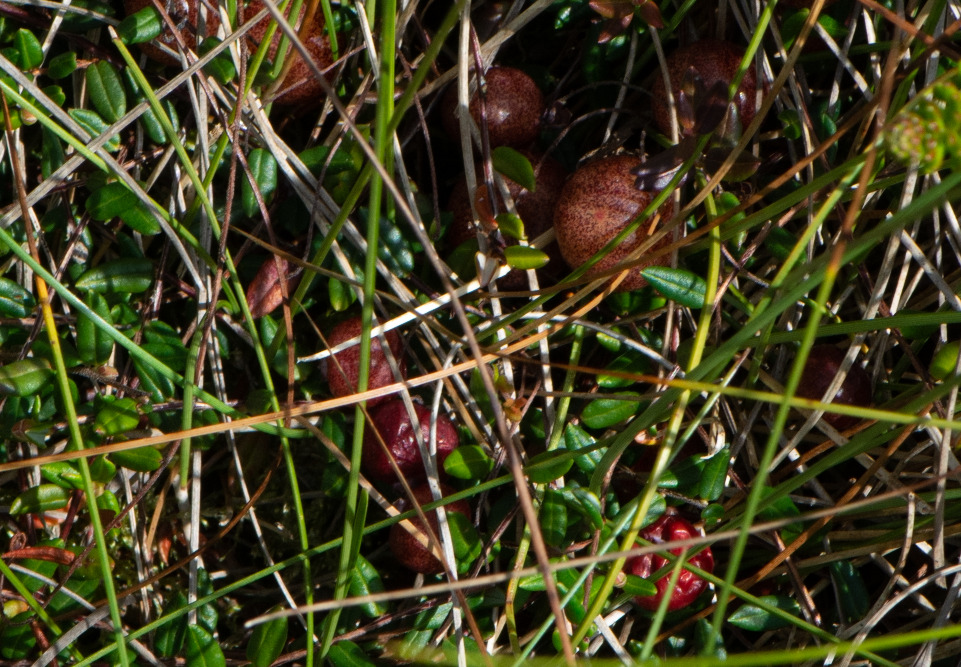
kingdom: Plantae
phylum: Tracheophyta
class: Magnoliopsida
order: Ericales
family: Ericaceae
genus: Vaccinium
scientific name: Vaccinium oxycoccos
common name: Tranebær
